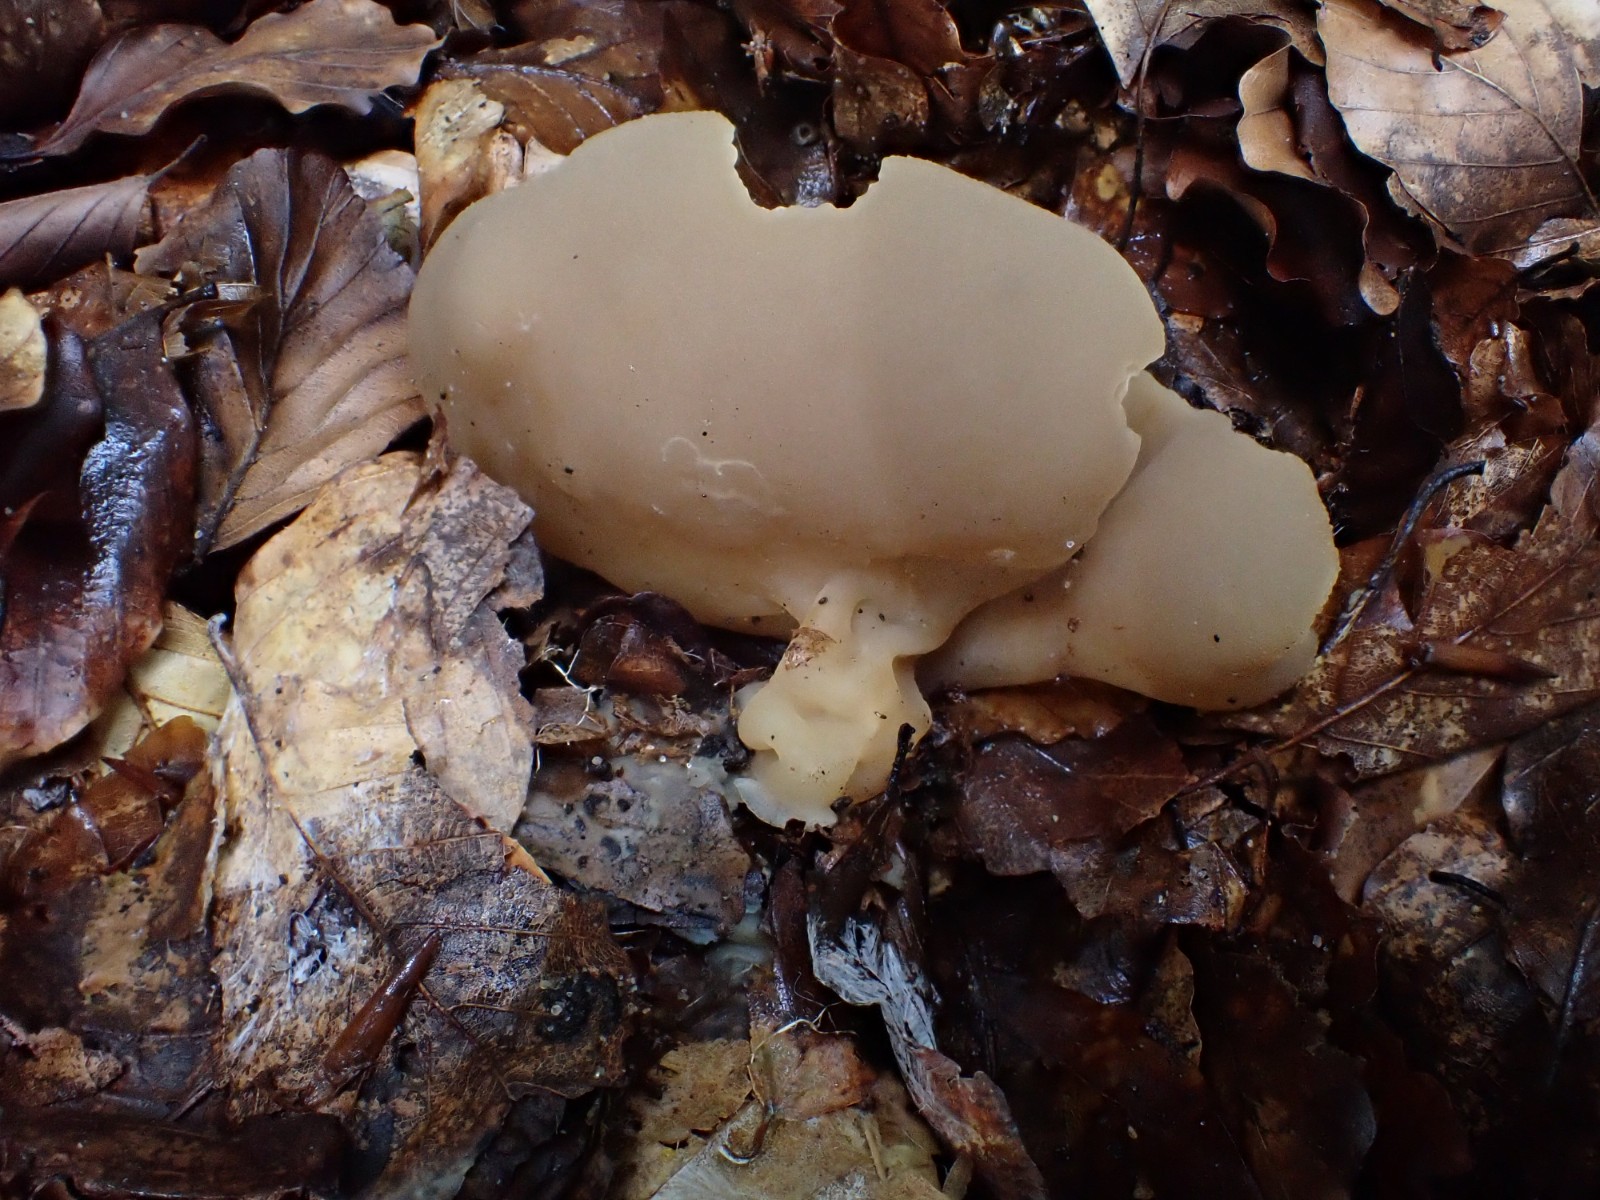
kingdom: Fungi
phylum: Ascomycota
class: Pezizomycetes
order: Pezizales
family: Pezizaceae
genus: Peziza
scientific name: Peziza arvernensis
